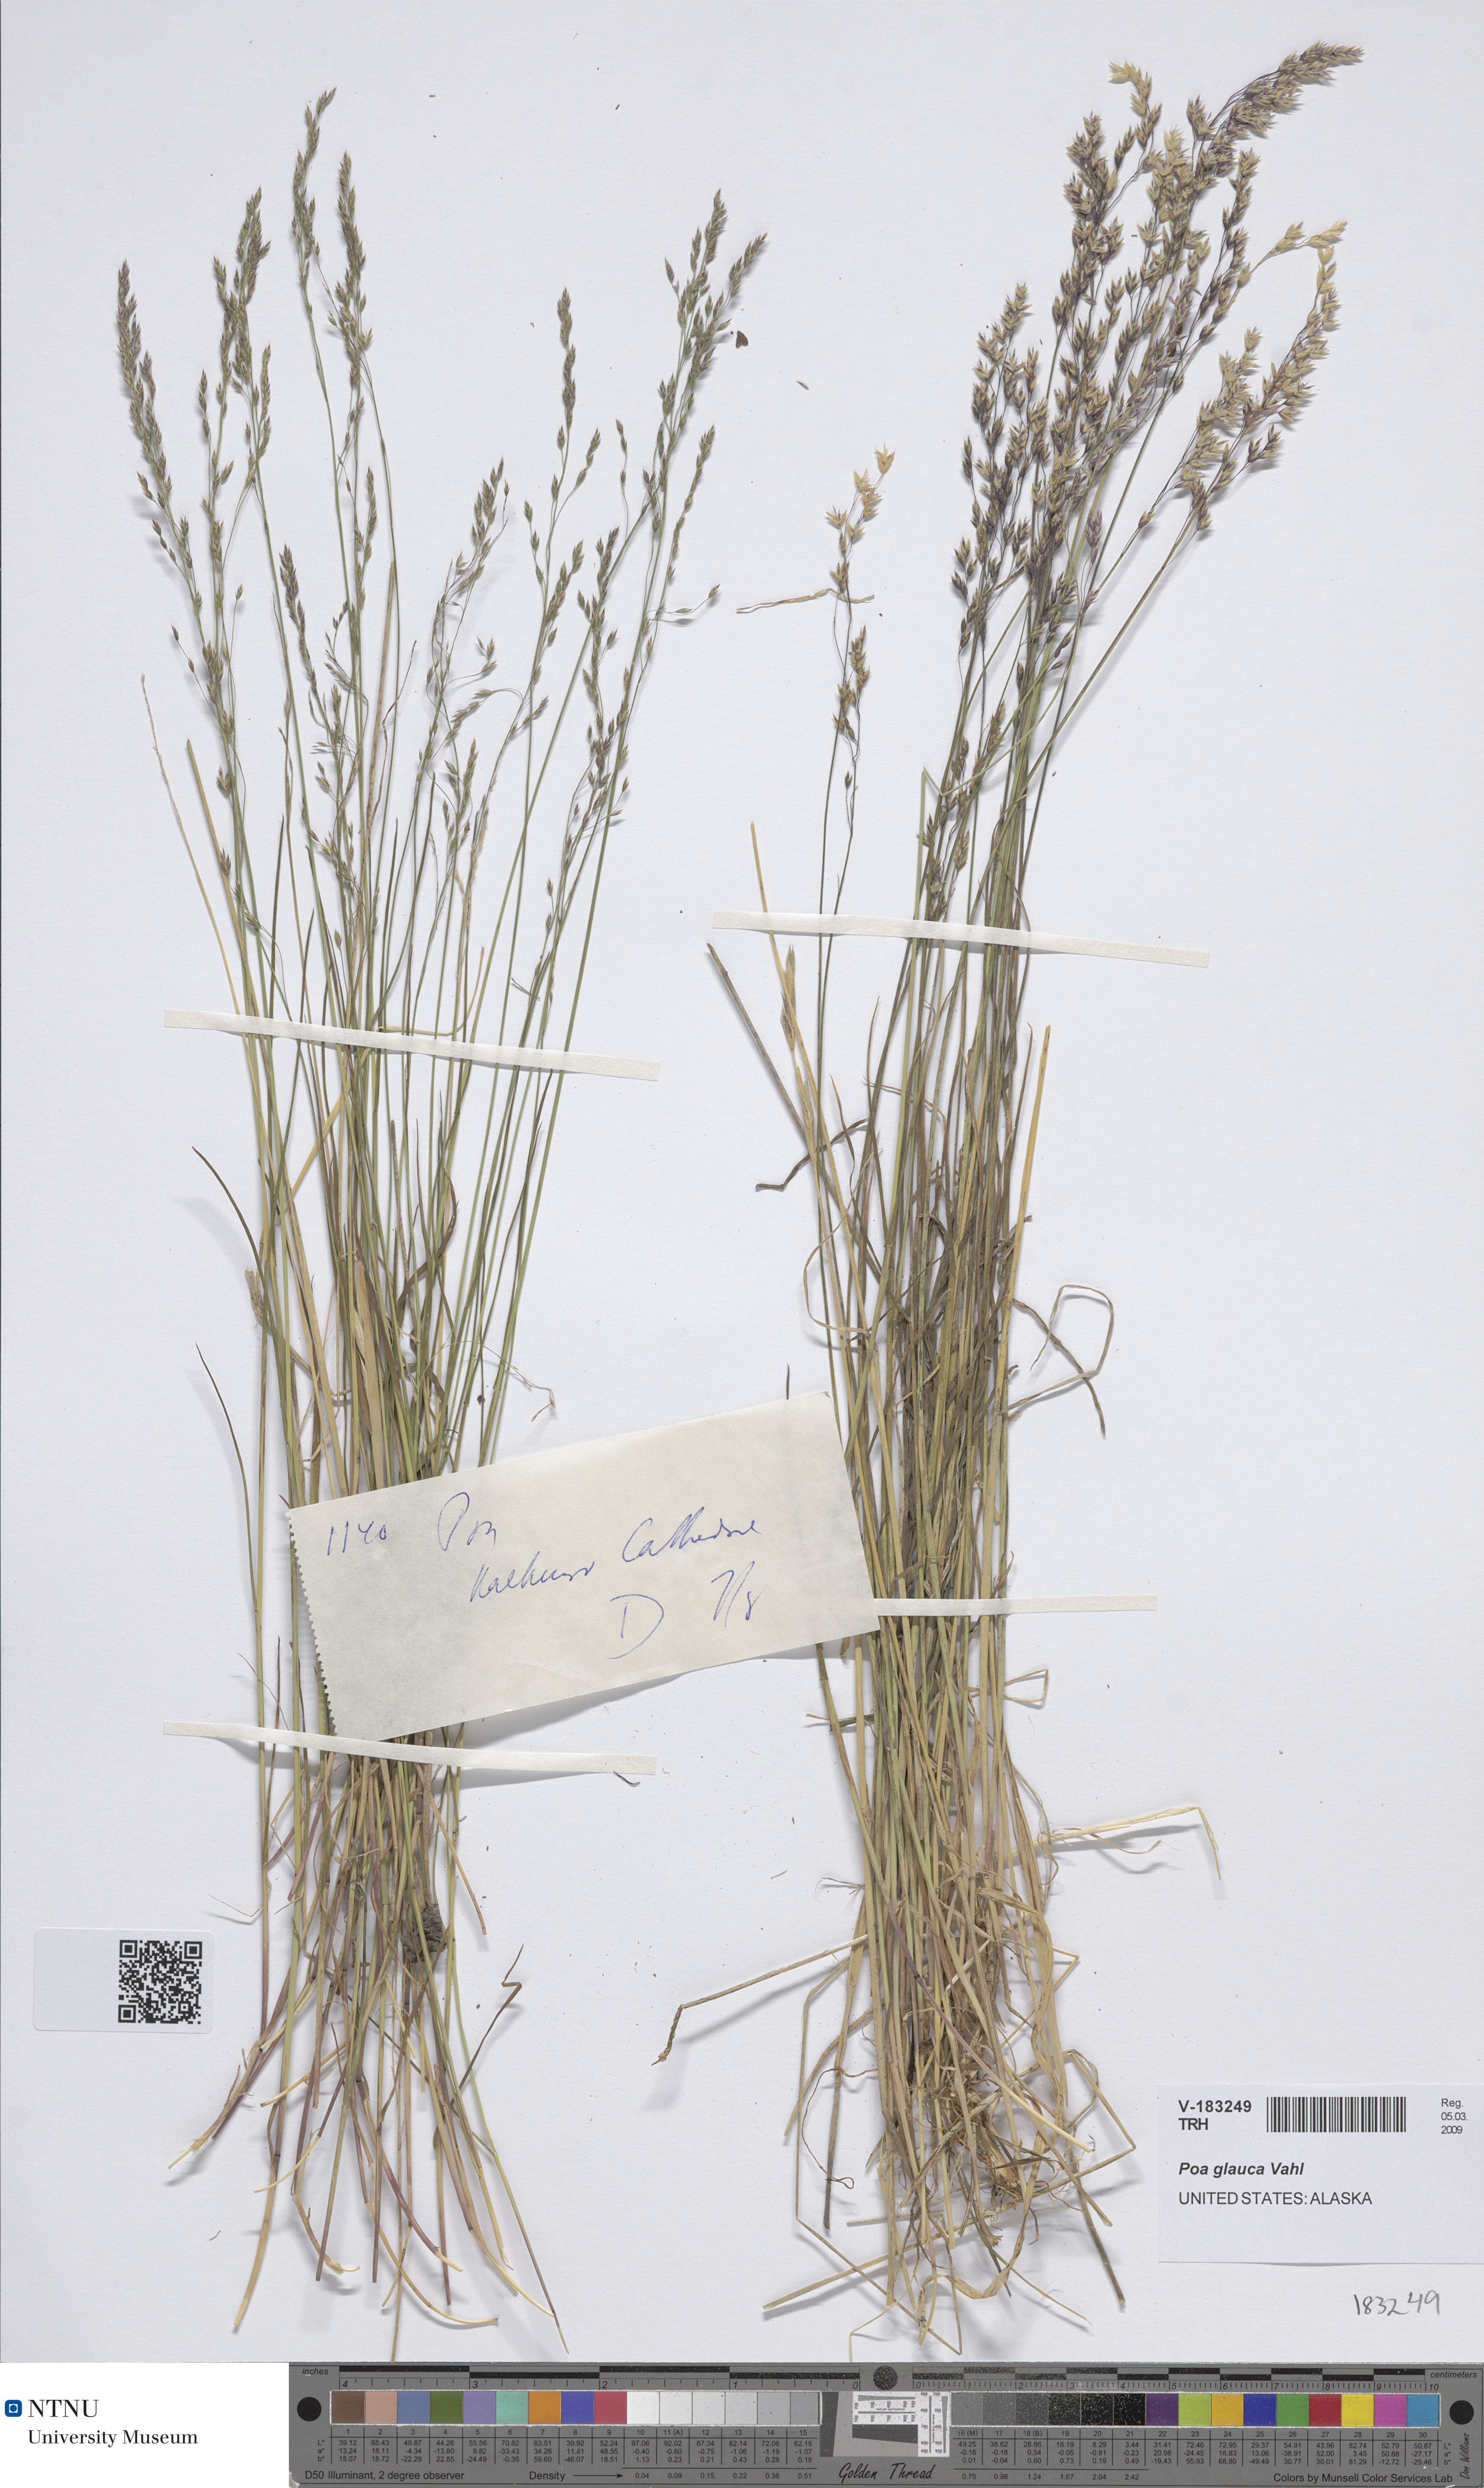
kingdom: Plantae
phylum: Tracheophyta
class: Liliopsida
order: Poales
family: Poaceae
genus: Poa
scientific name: Poa glauca
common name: Glaucous bluegrass
